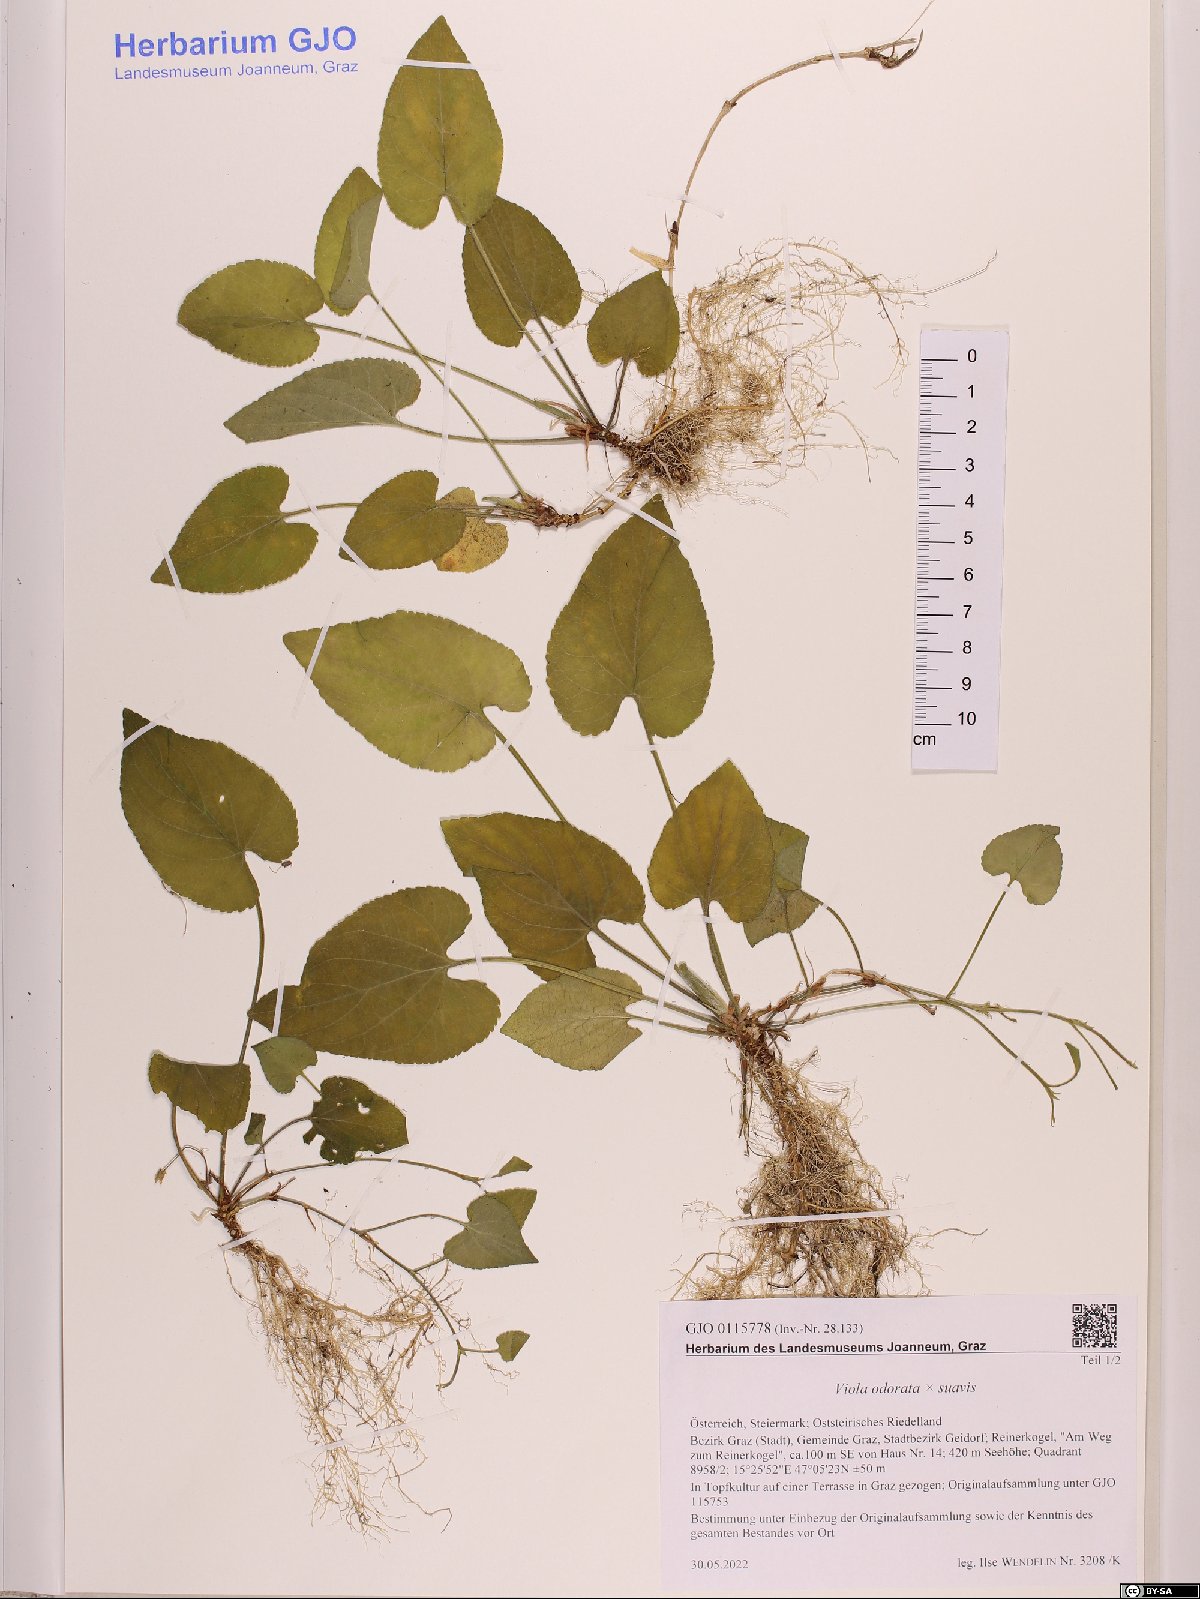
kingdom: Plantae
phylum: Tracheophyta
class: Magnoliopsida
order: Malpighiales
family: Violaceae
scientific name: Violaceae
